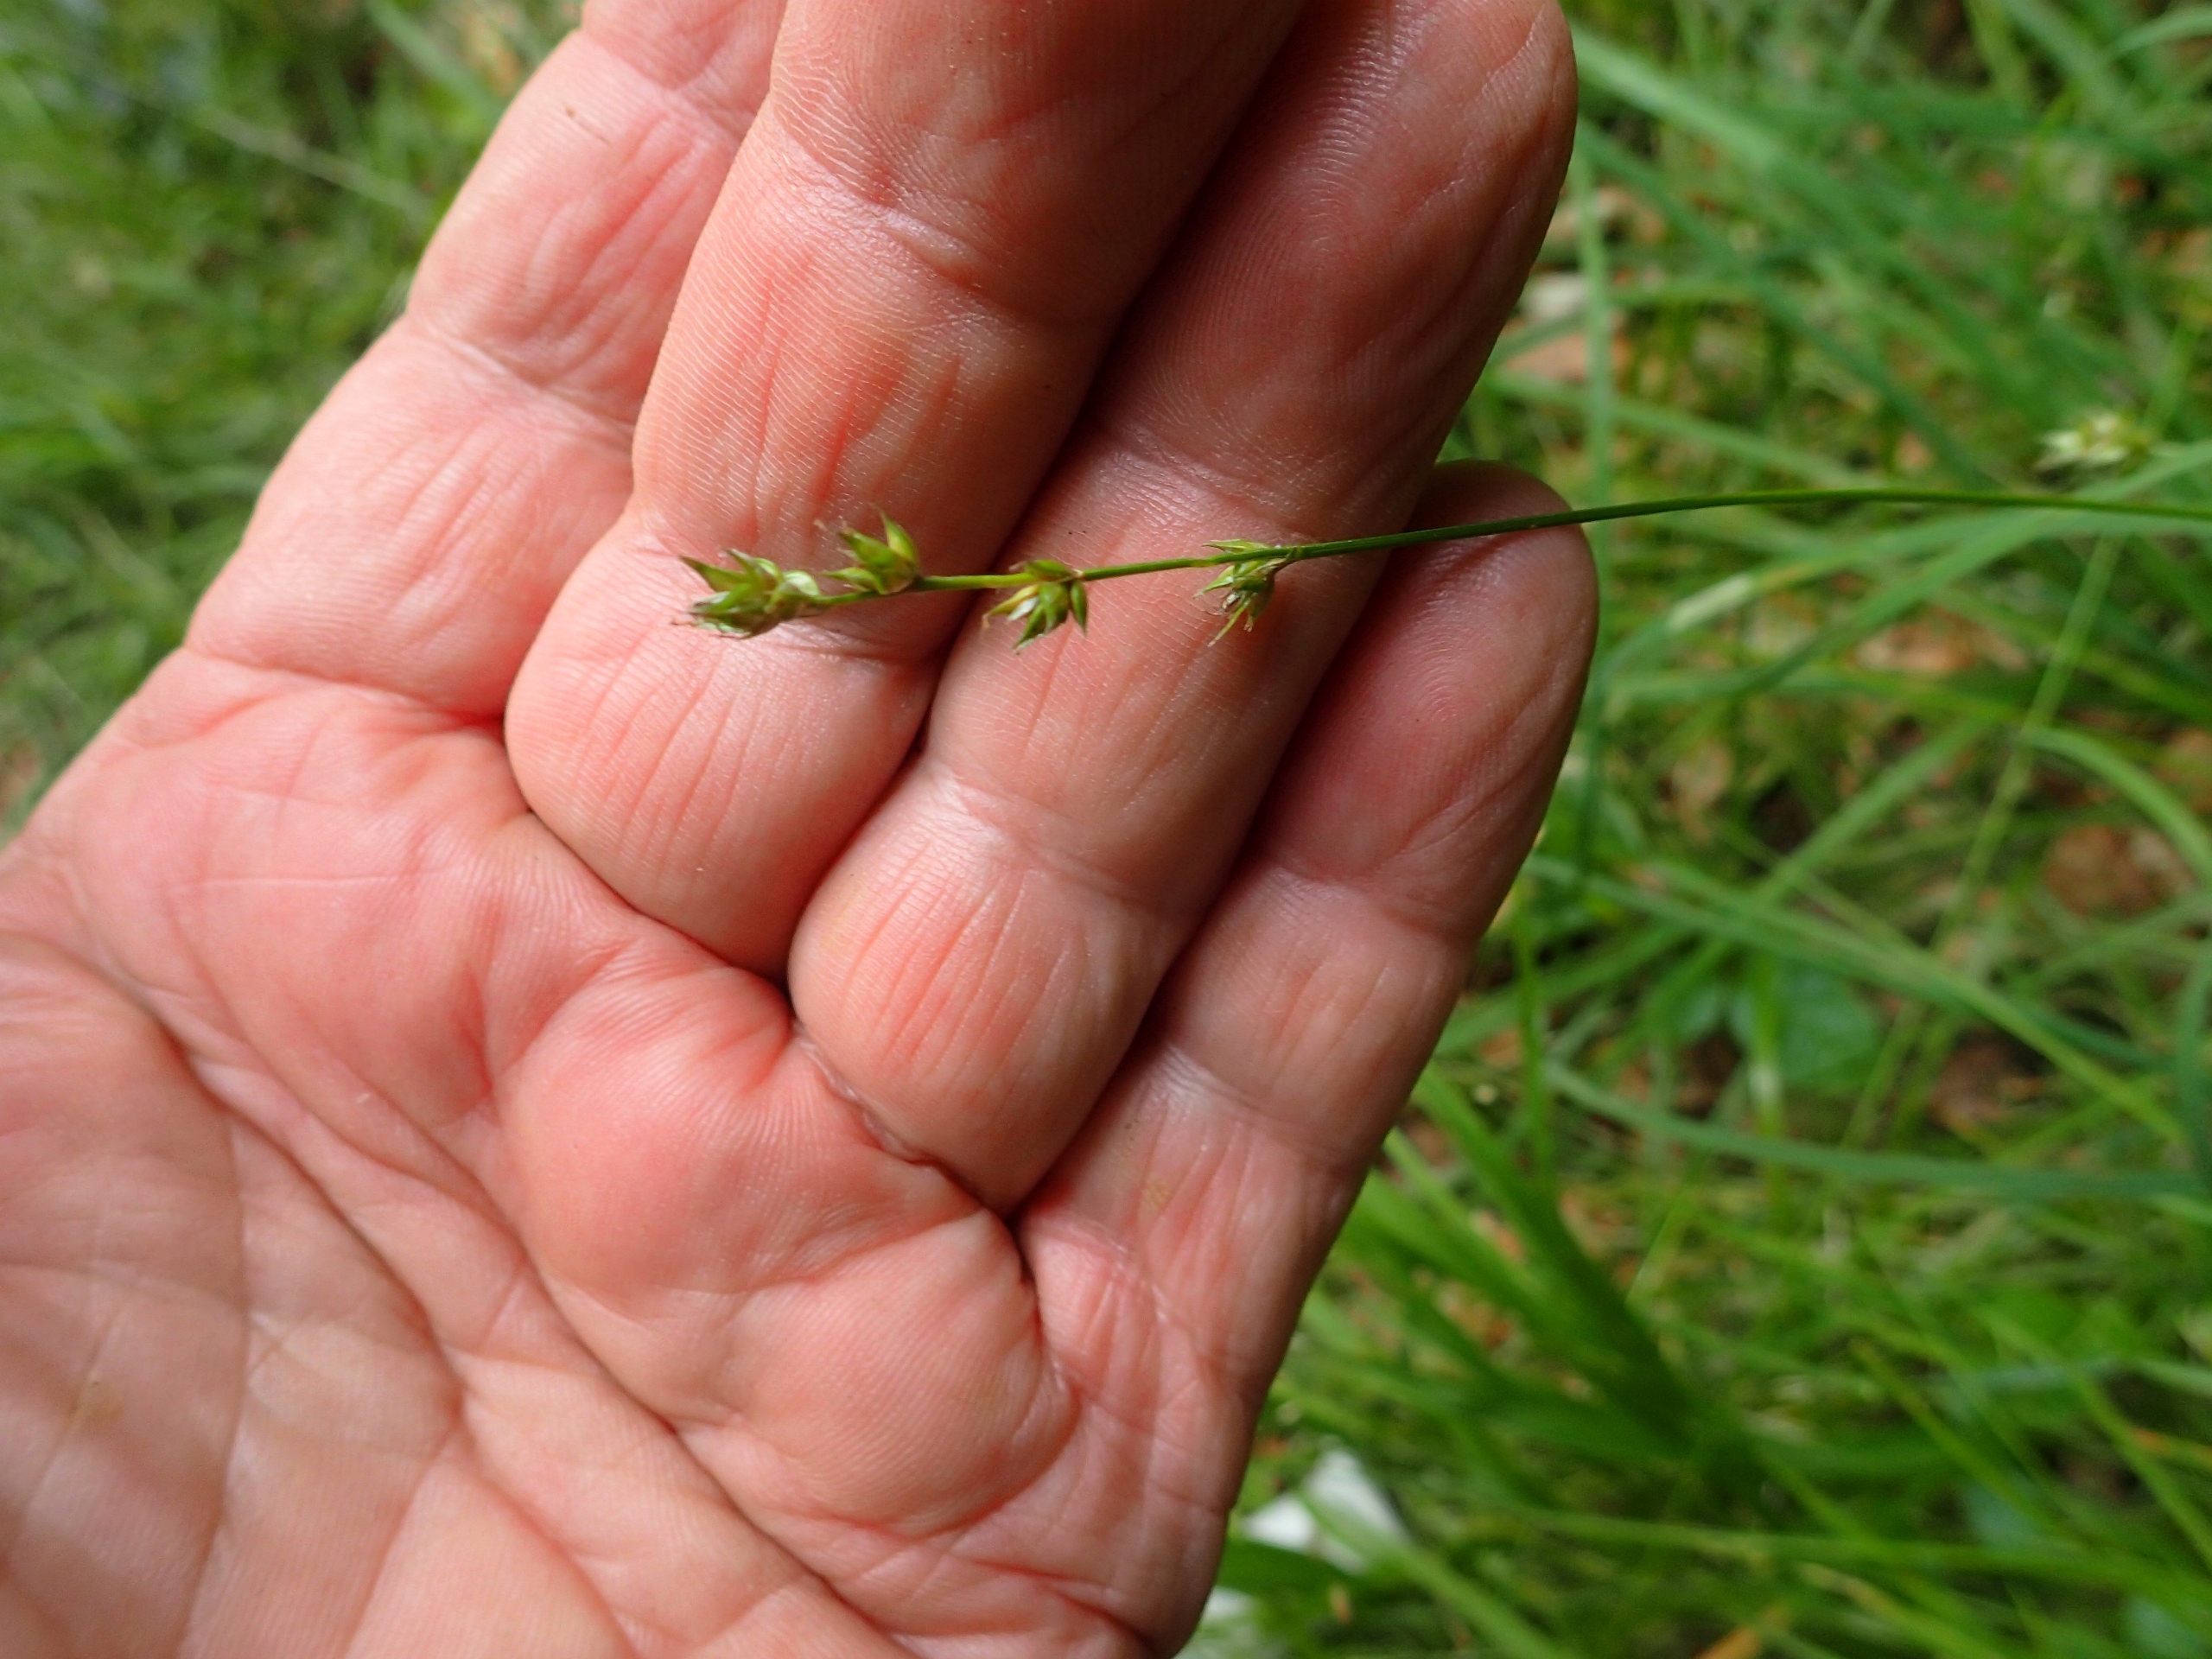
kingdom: Plantae
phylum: Tracheophyta
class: Liliopsida
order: Poales
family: Cyperaceae
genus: Carex
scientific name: Carex divulsa
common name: Mellembrudt star
